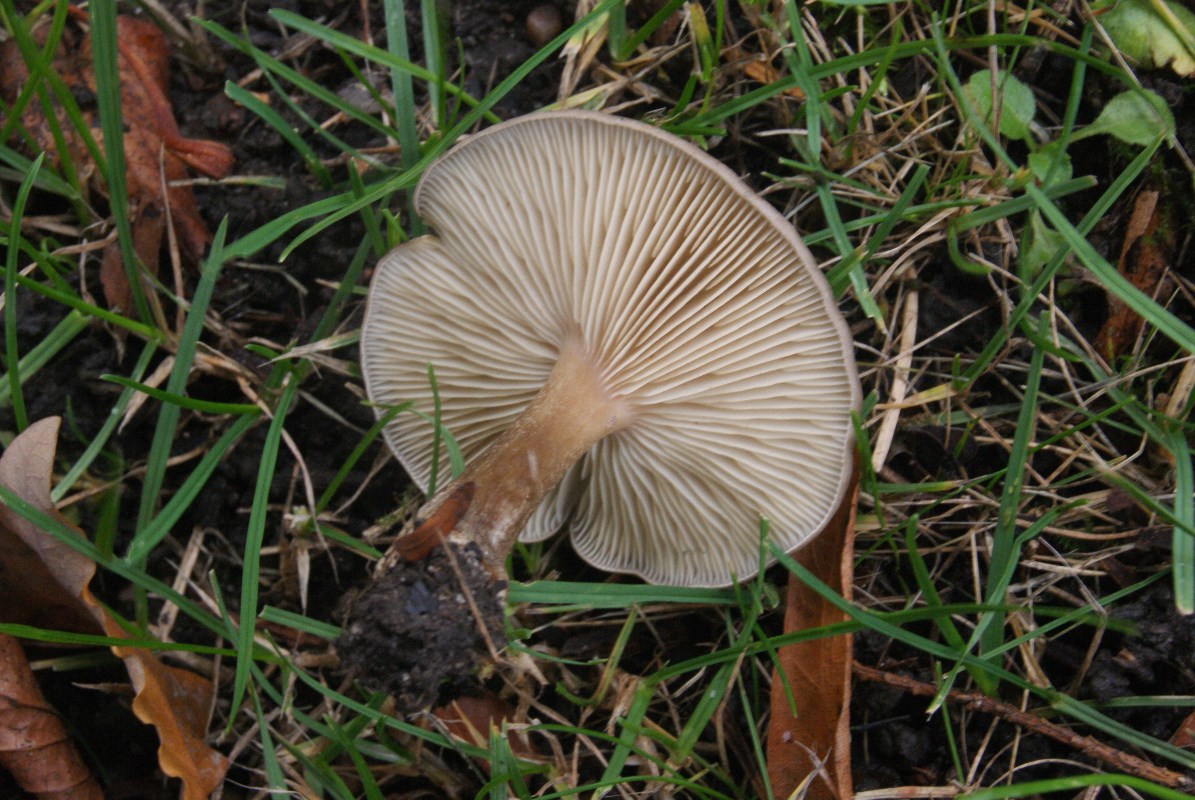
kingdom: Fungi
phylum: Basidiomycota
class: Agaricomycetes
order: Agaricales
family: Tricholomataceae
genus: Melanoleuca
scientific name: Melanoleuca
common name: munkehat
